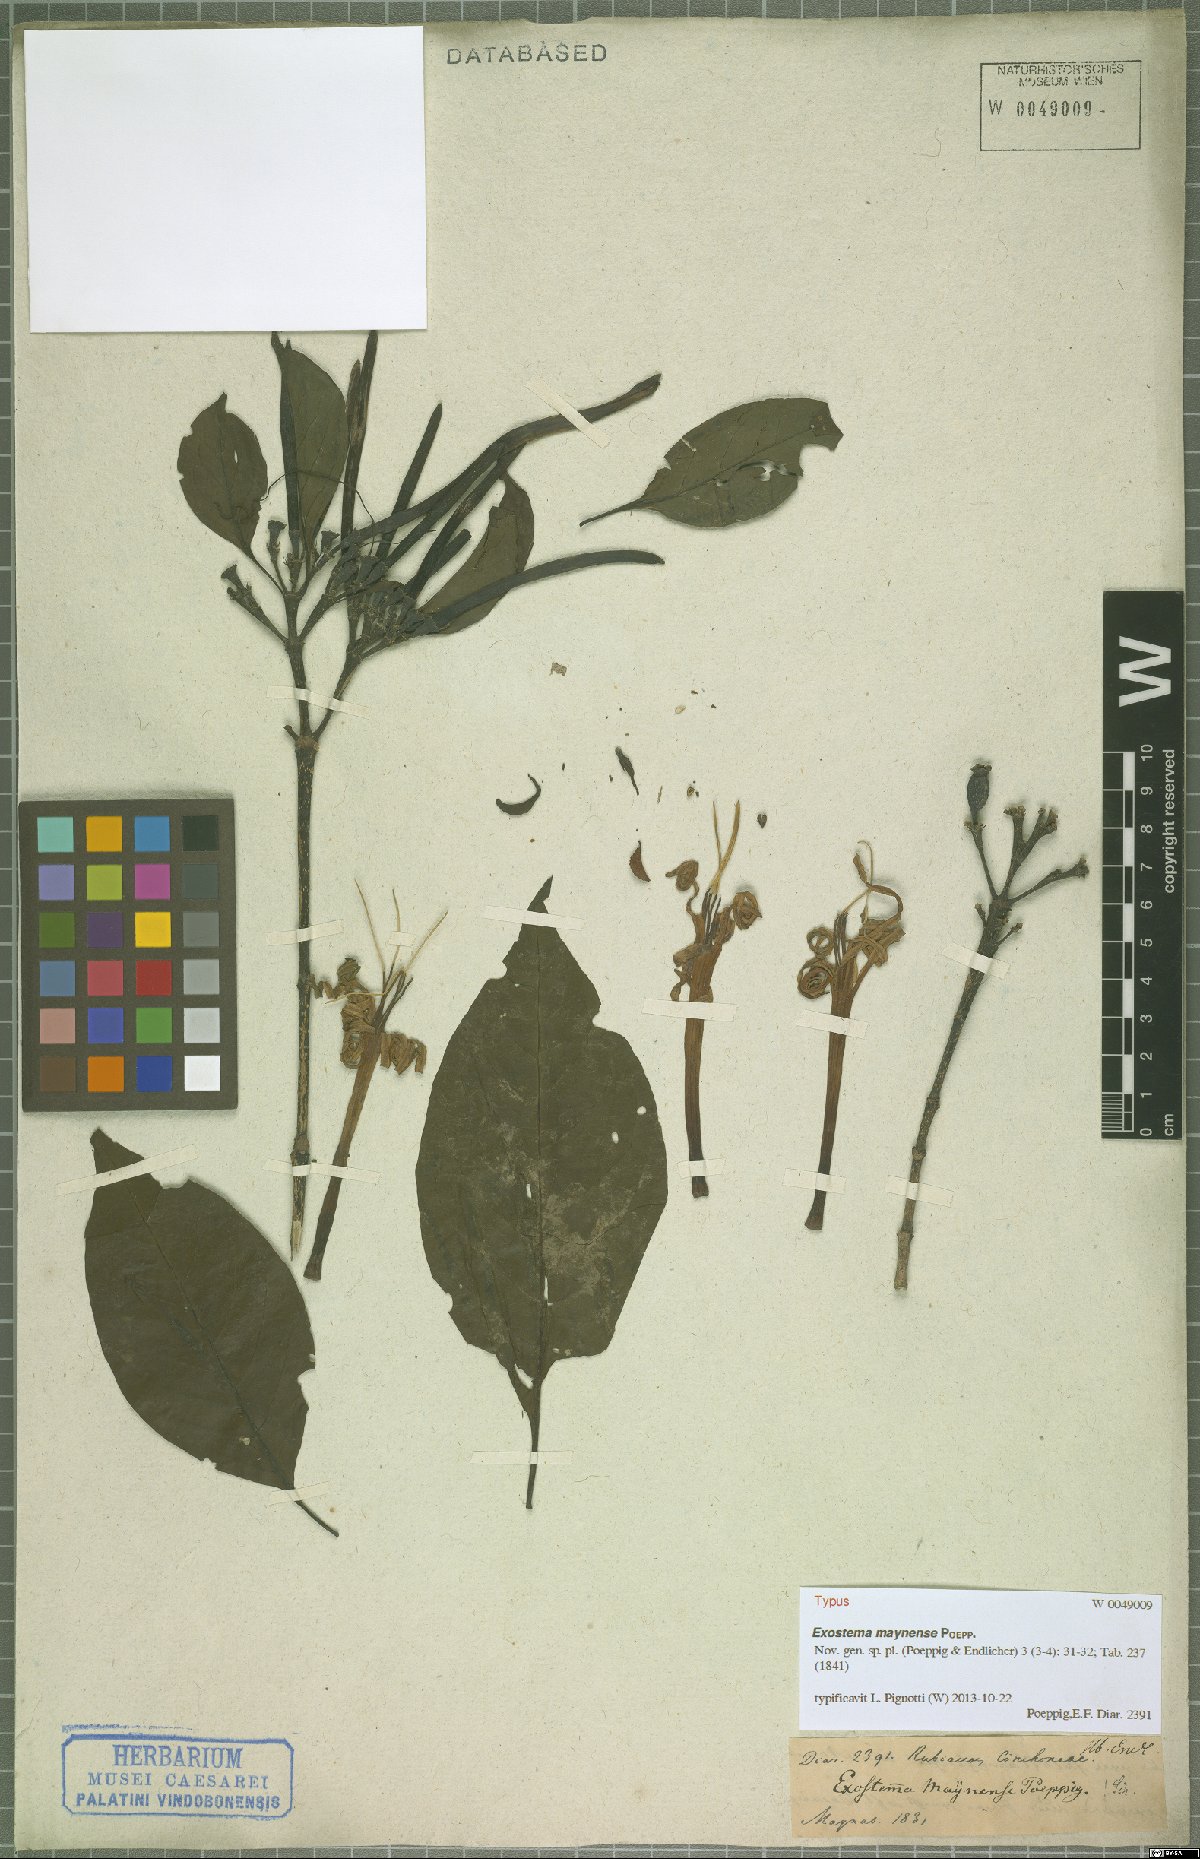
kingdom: Plantae
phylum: Tracheophyta
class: Magnoliopsida
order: Gentianales
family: Rubiaceae
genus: Adolphoduckea
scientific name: Adolphoduckea maynensis
